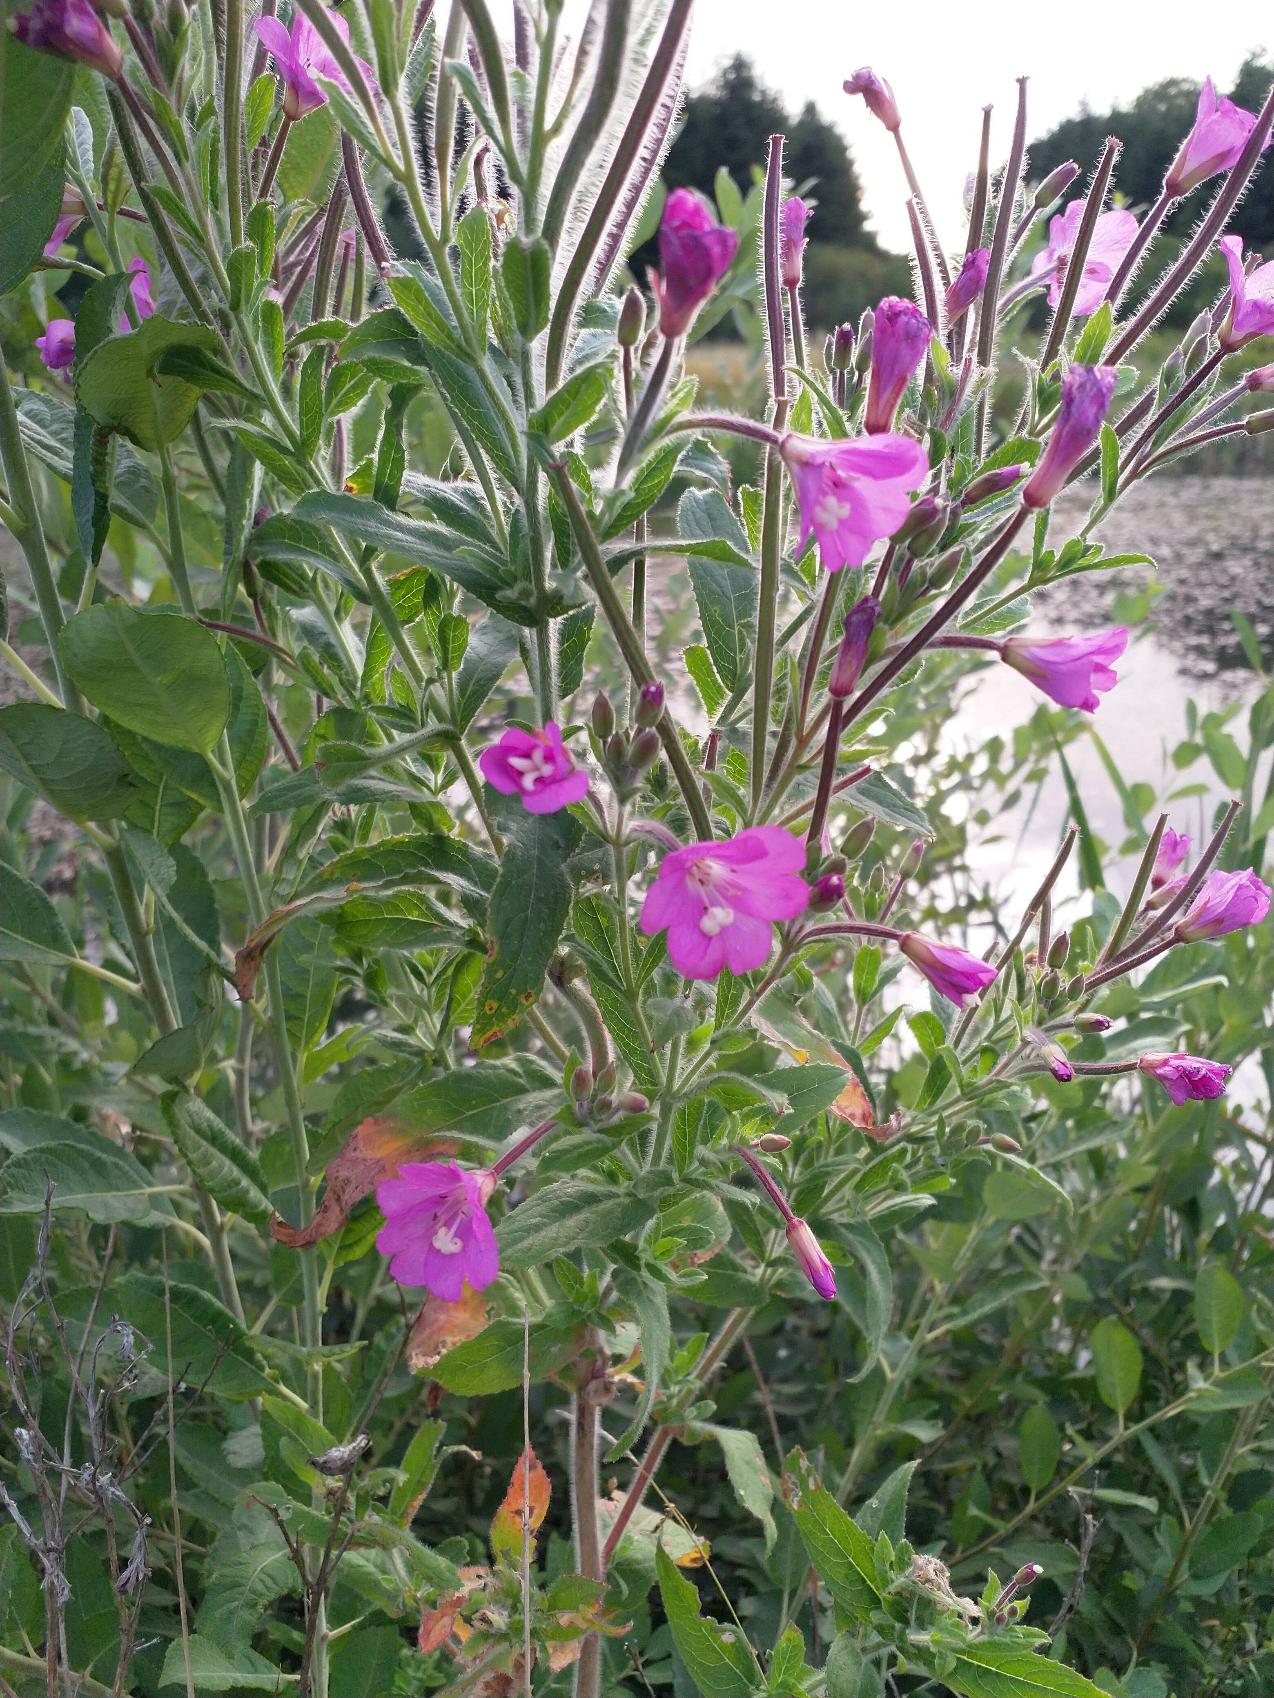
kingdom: Plantae
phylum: Tracheophyta
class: Magnoliopsida
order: Myrtales
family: Onagraceae
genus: Epilobium
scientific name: Epilobium hirsutum
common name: Lådden dueurt
